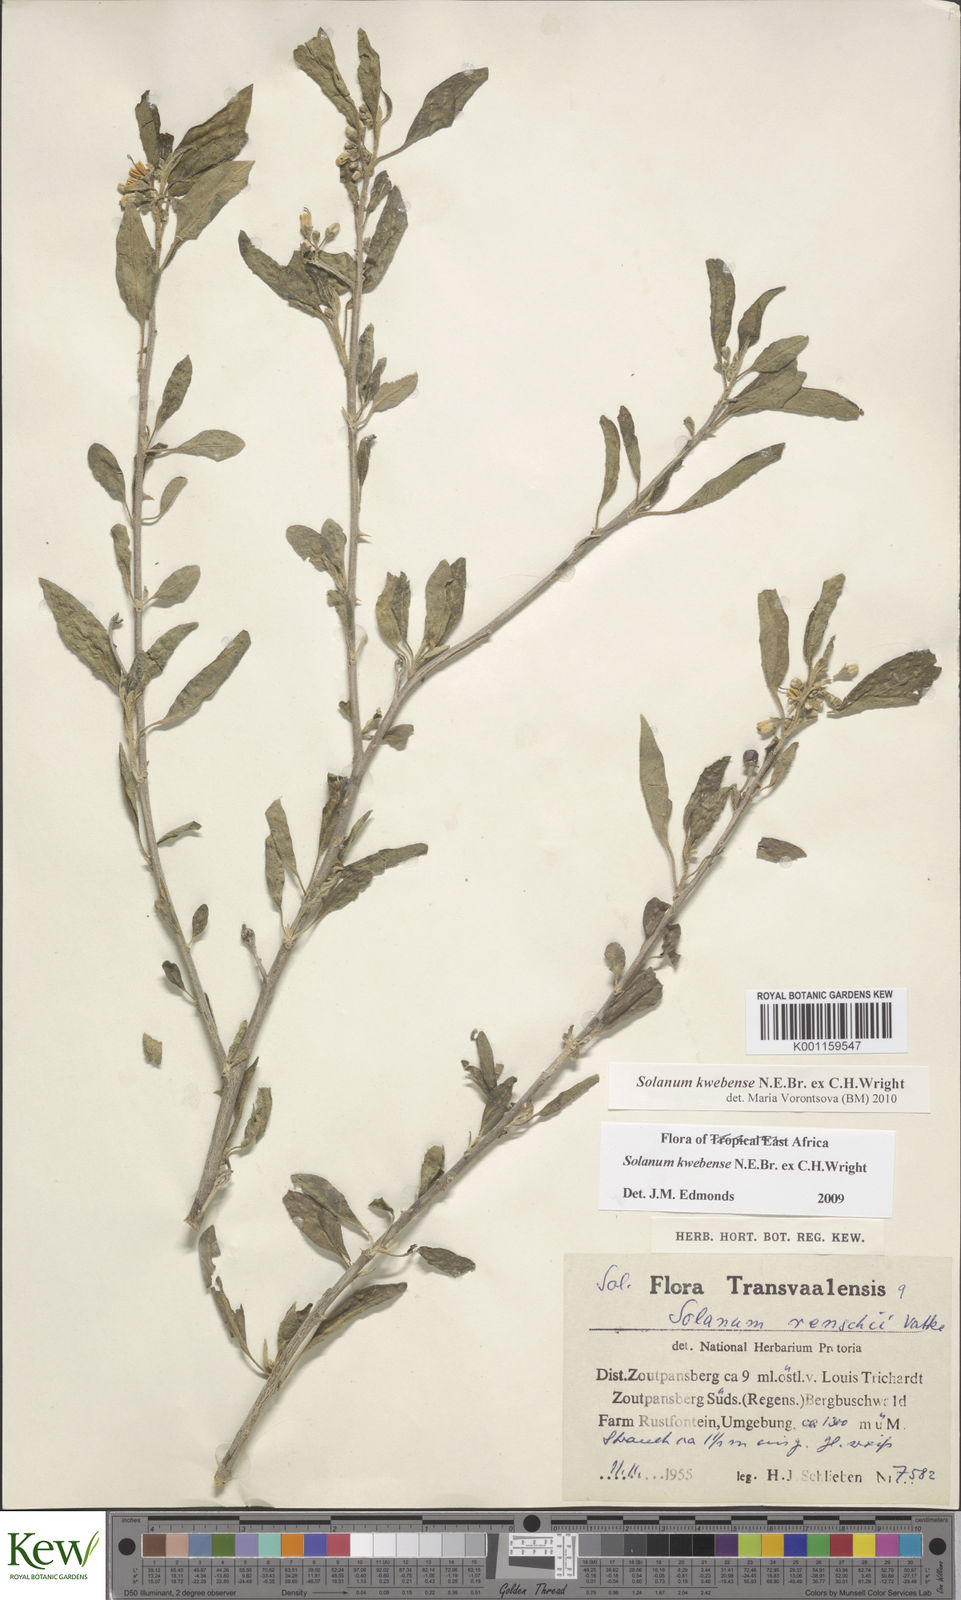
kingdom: Plantae
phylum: Tracheophyta
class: Magnoliopsida
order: Solanales
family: Solanaceae
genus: Solanum
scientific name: Solanum tettense
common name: Mozambique bitter apple
